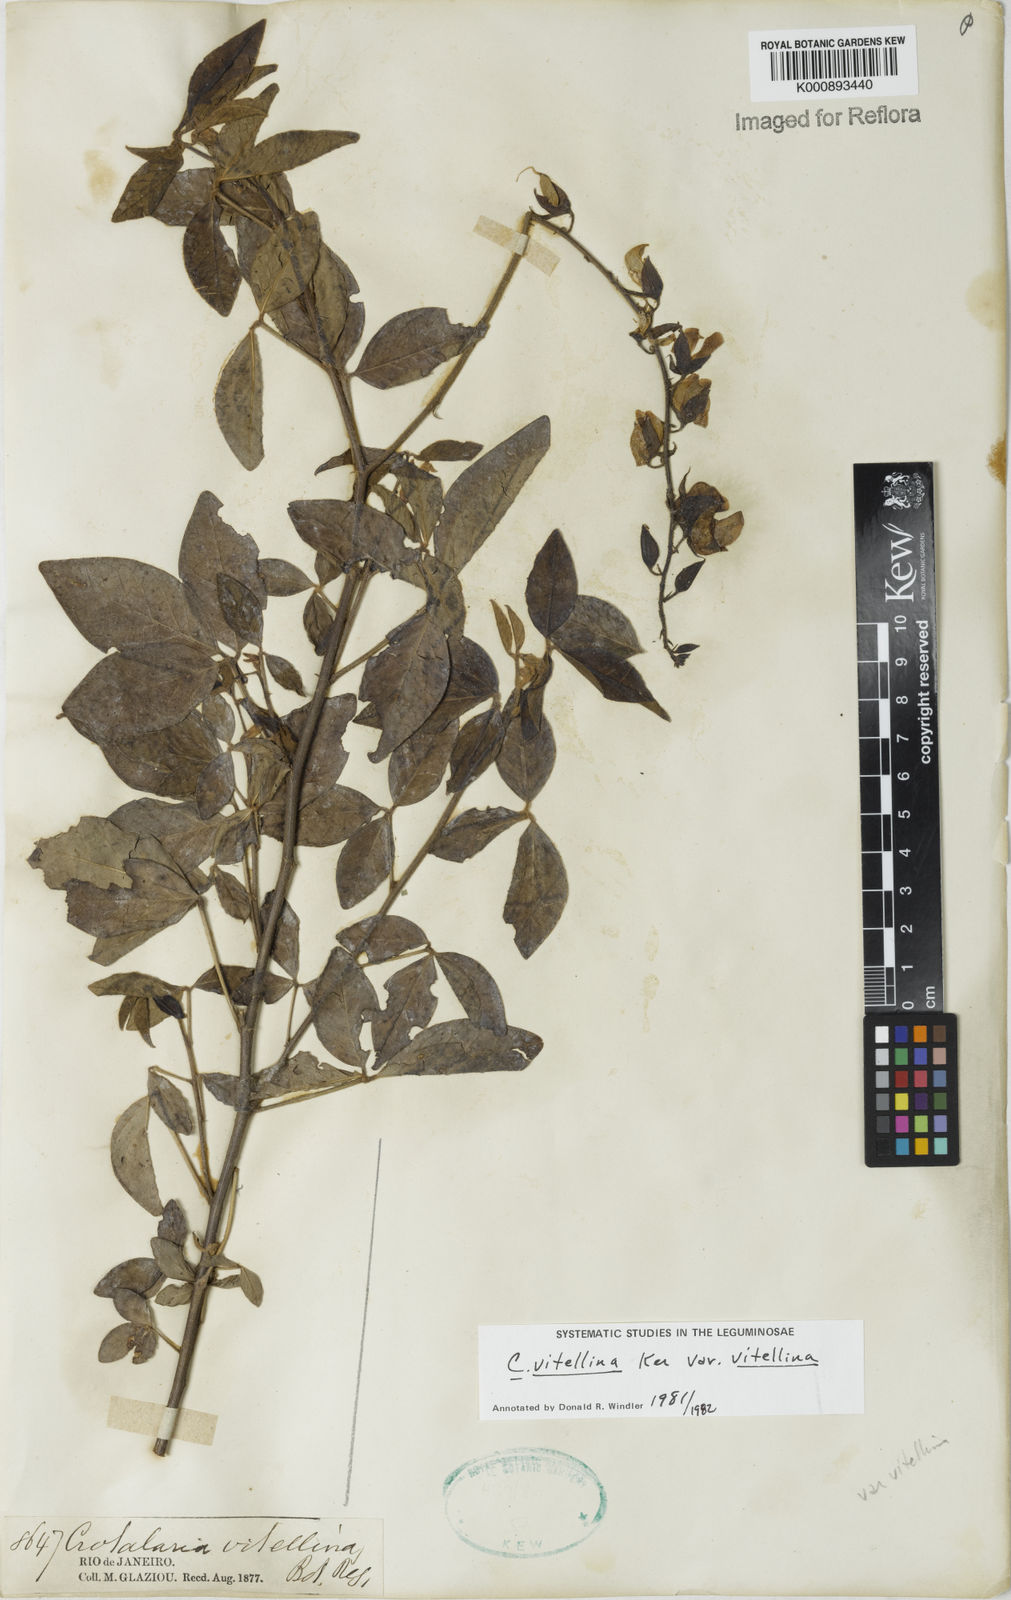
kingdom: Plantae
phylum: Tracheophyta
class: Magnoliopsida
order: Fabales
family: Fabaceae
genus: Crotalaria
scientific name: Crotalaria vitellina
